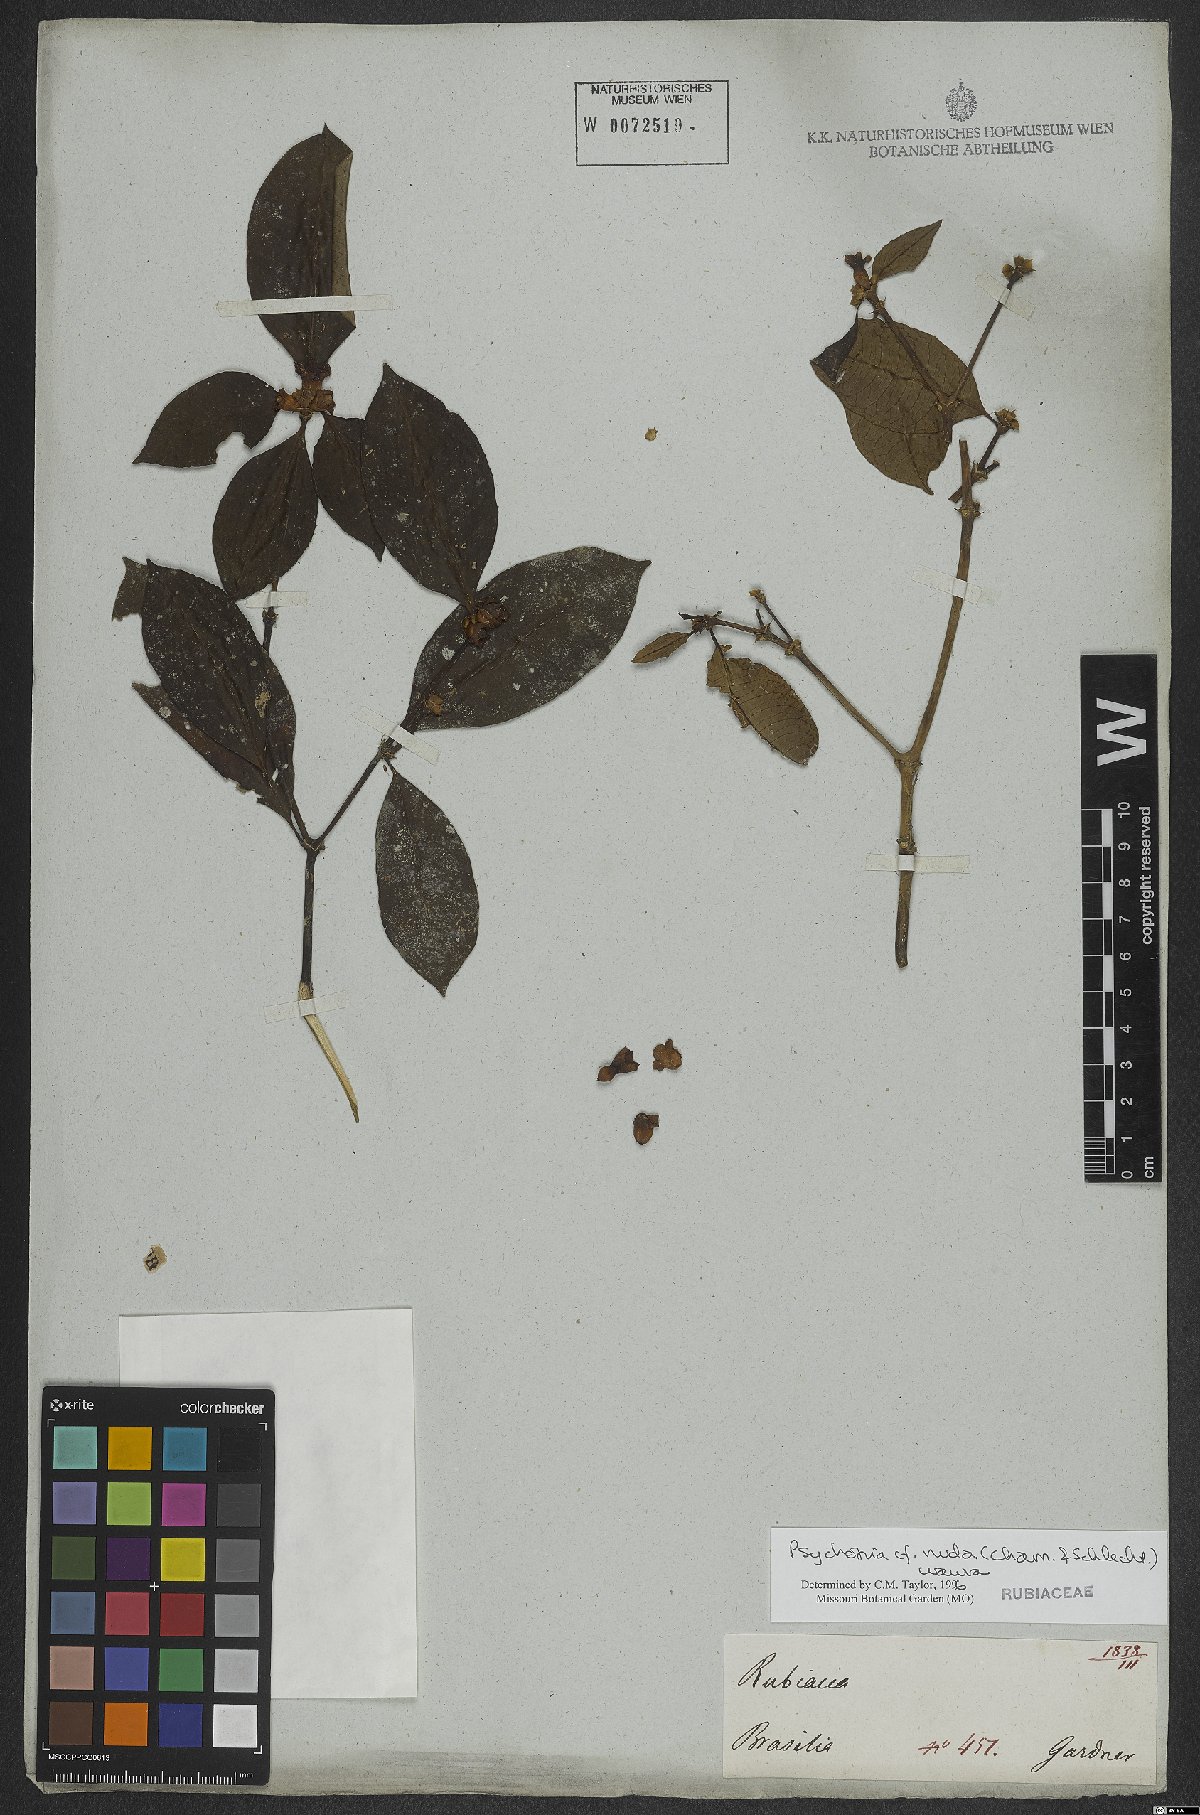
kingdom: Plantae
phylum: Tracheophyta
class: Magnoliopsida
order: Gentianales
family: Rubiaceae
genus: Psychotria
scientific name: Psychotria nuda
